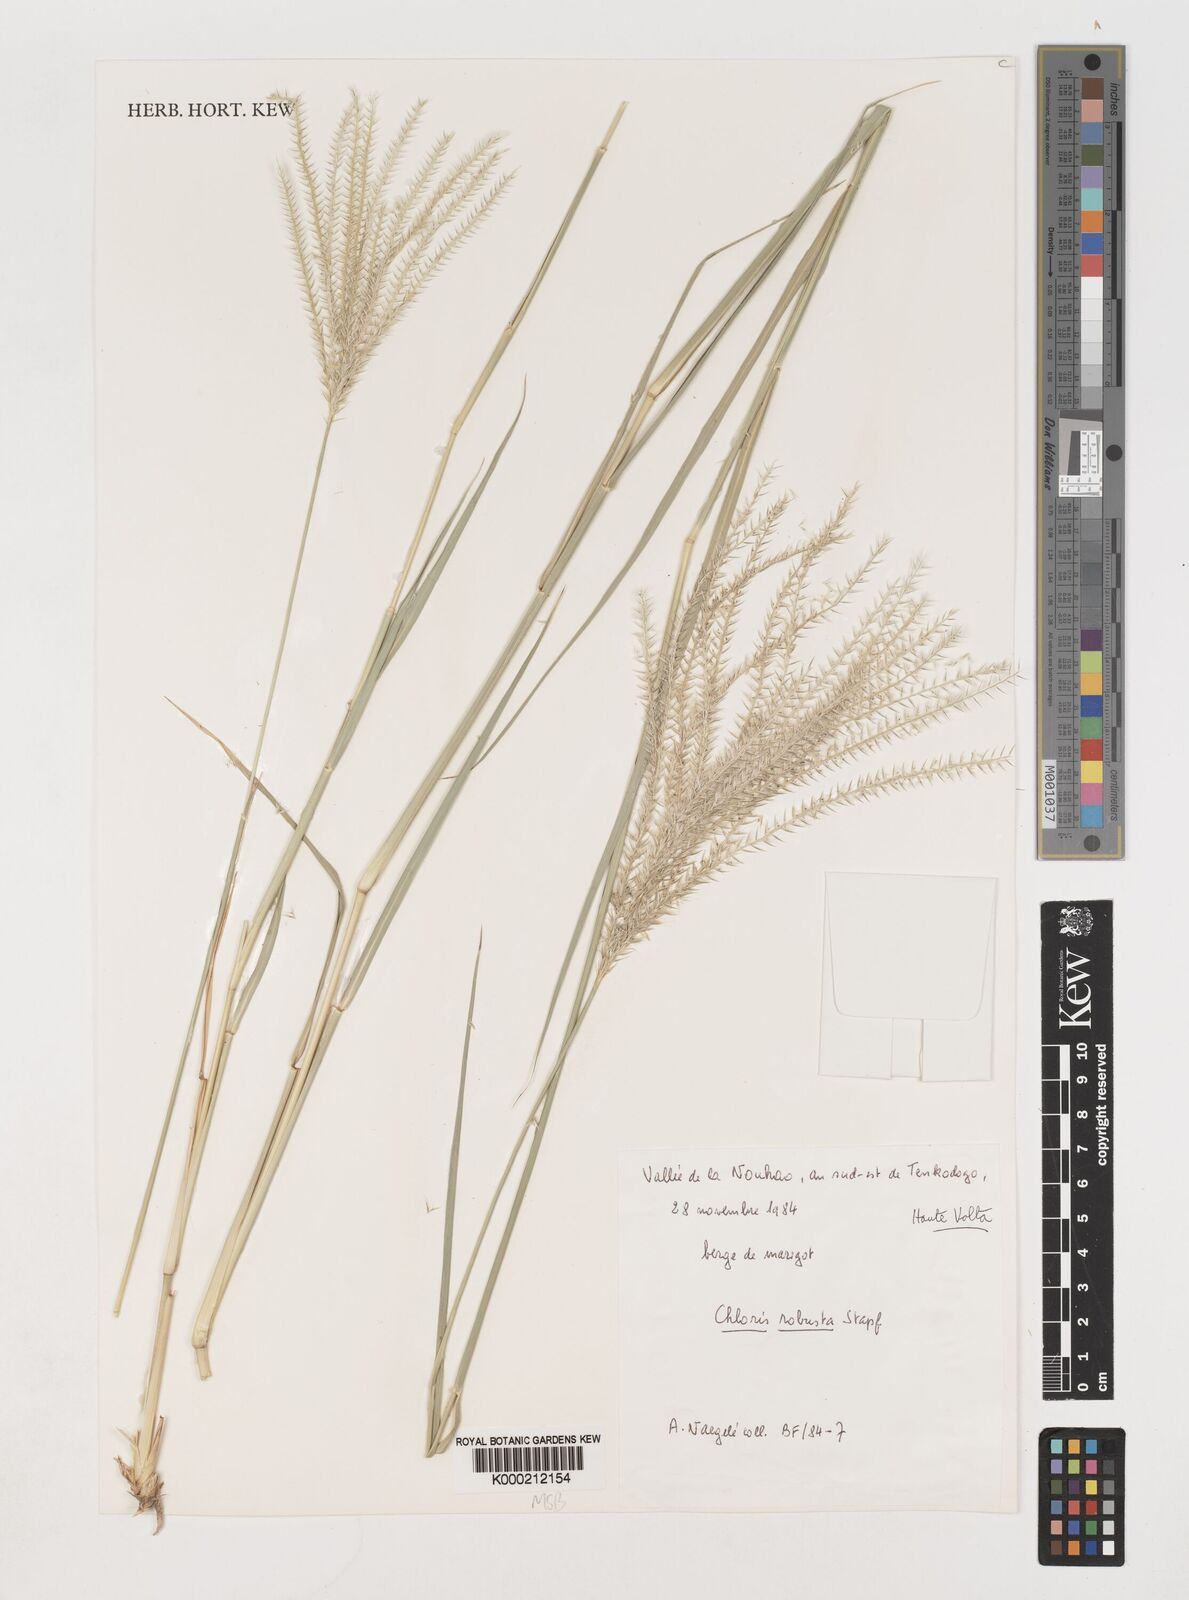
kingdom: Plantae
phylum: Tracheophyta
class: Liliopsida
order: Poales
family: Poaceae
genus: Chloris
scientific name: Chloris robusta
